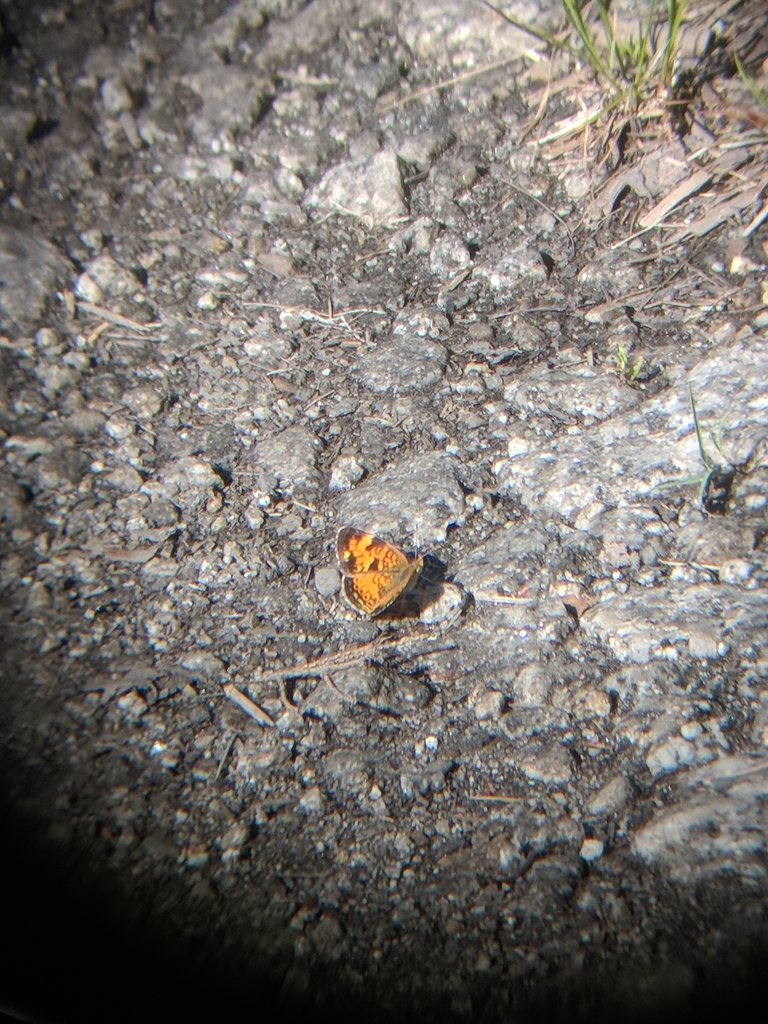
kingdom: Animalia
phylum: Arthropoda
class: Insecta
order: Lepidoptera
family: Nymphalidae
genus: Phyciodes
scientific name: Phyciodes
